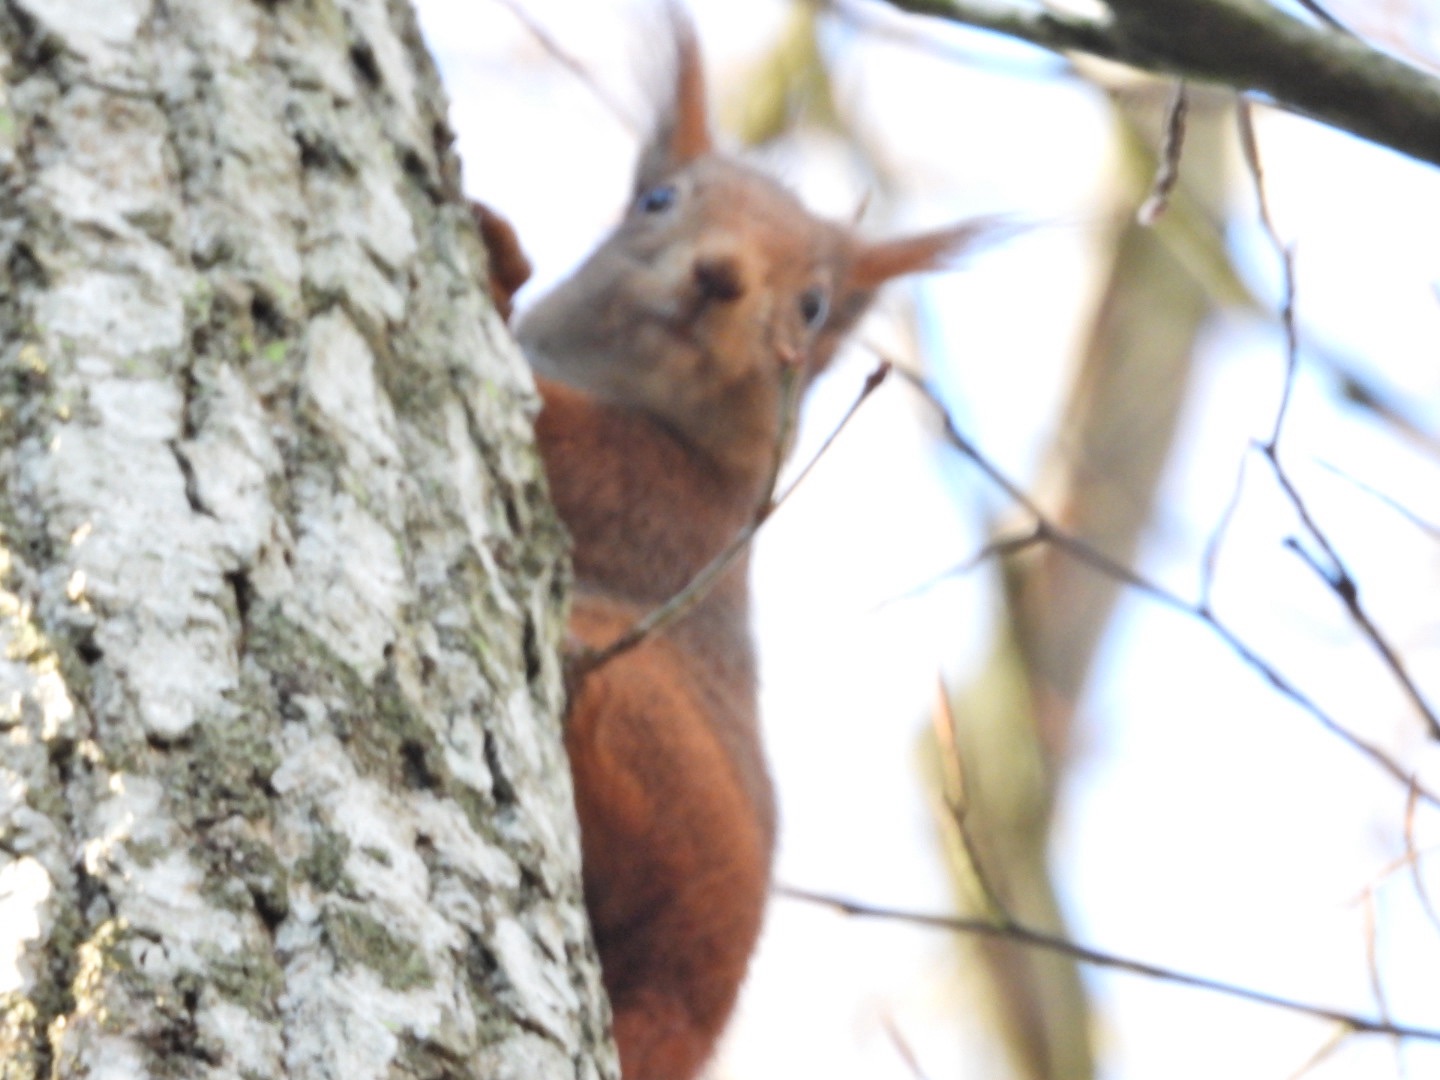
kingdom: Animalia
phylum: Chordata
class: Mammalia
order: Rodentia
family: Sciuridae
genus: Sciurus
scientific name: Sciurus vulgaris
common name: Egern
